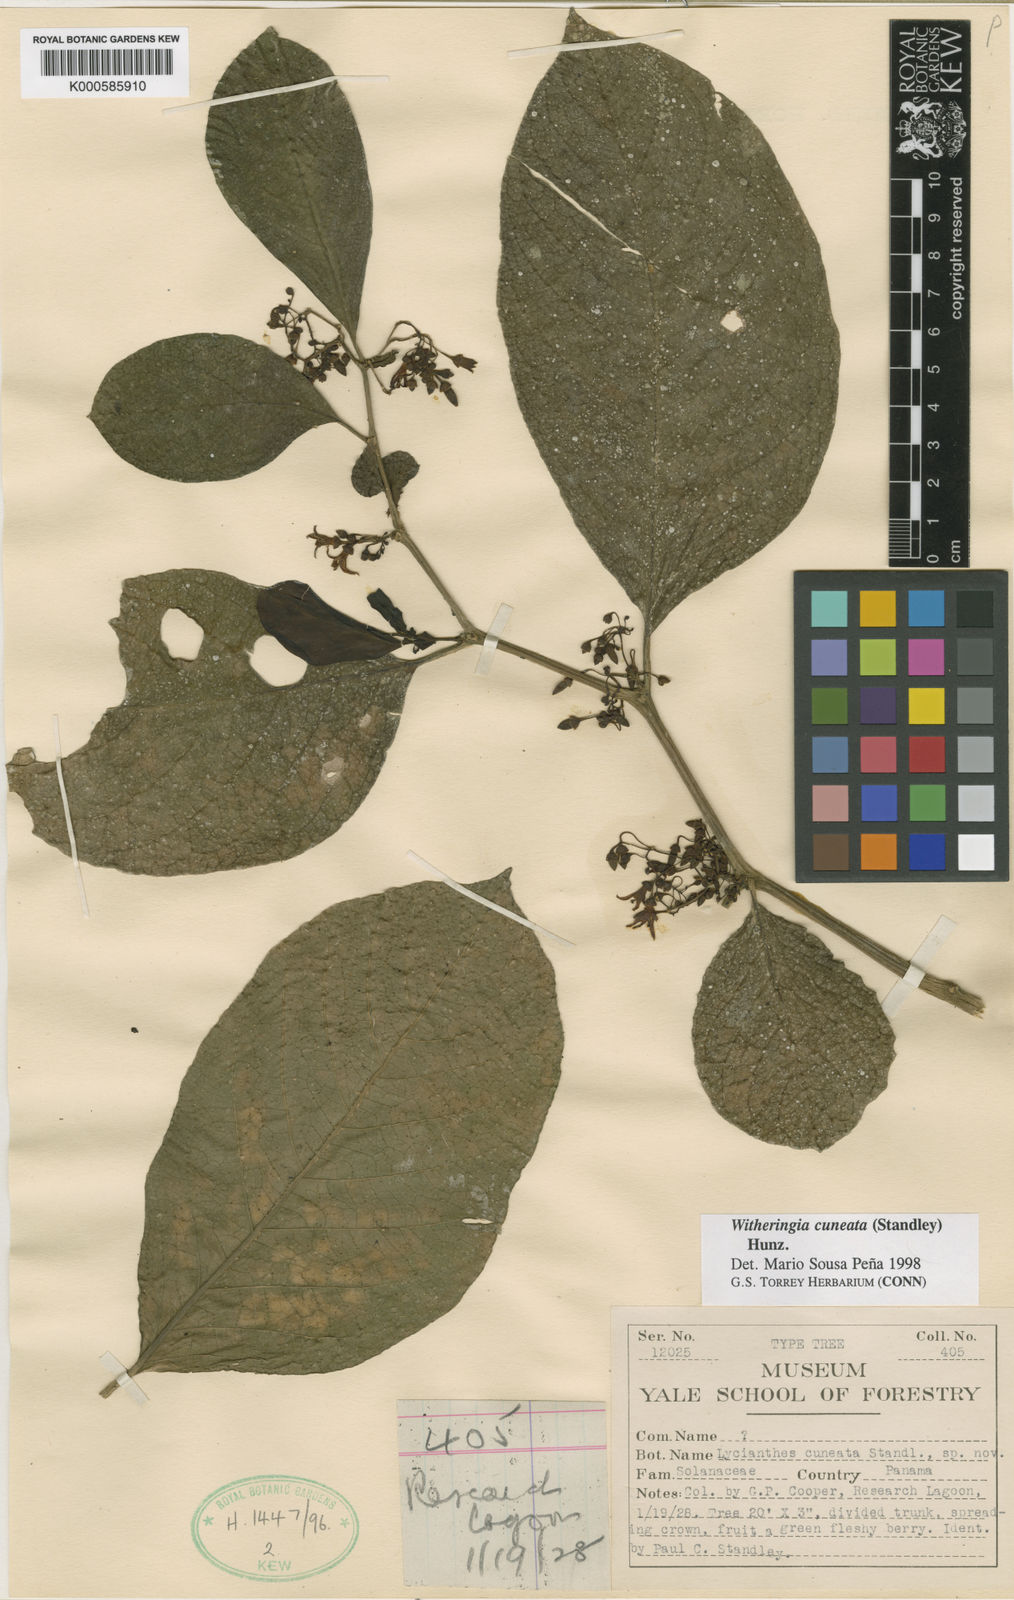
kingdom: Plantae
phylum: Tracheophyta
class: Magnoliopsida
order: Solanales
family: Solanaceae
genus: Cuatresia
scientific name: Cuatresia cuneata
